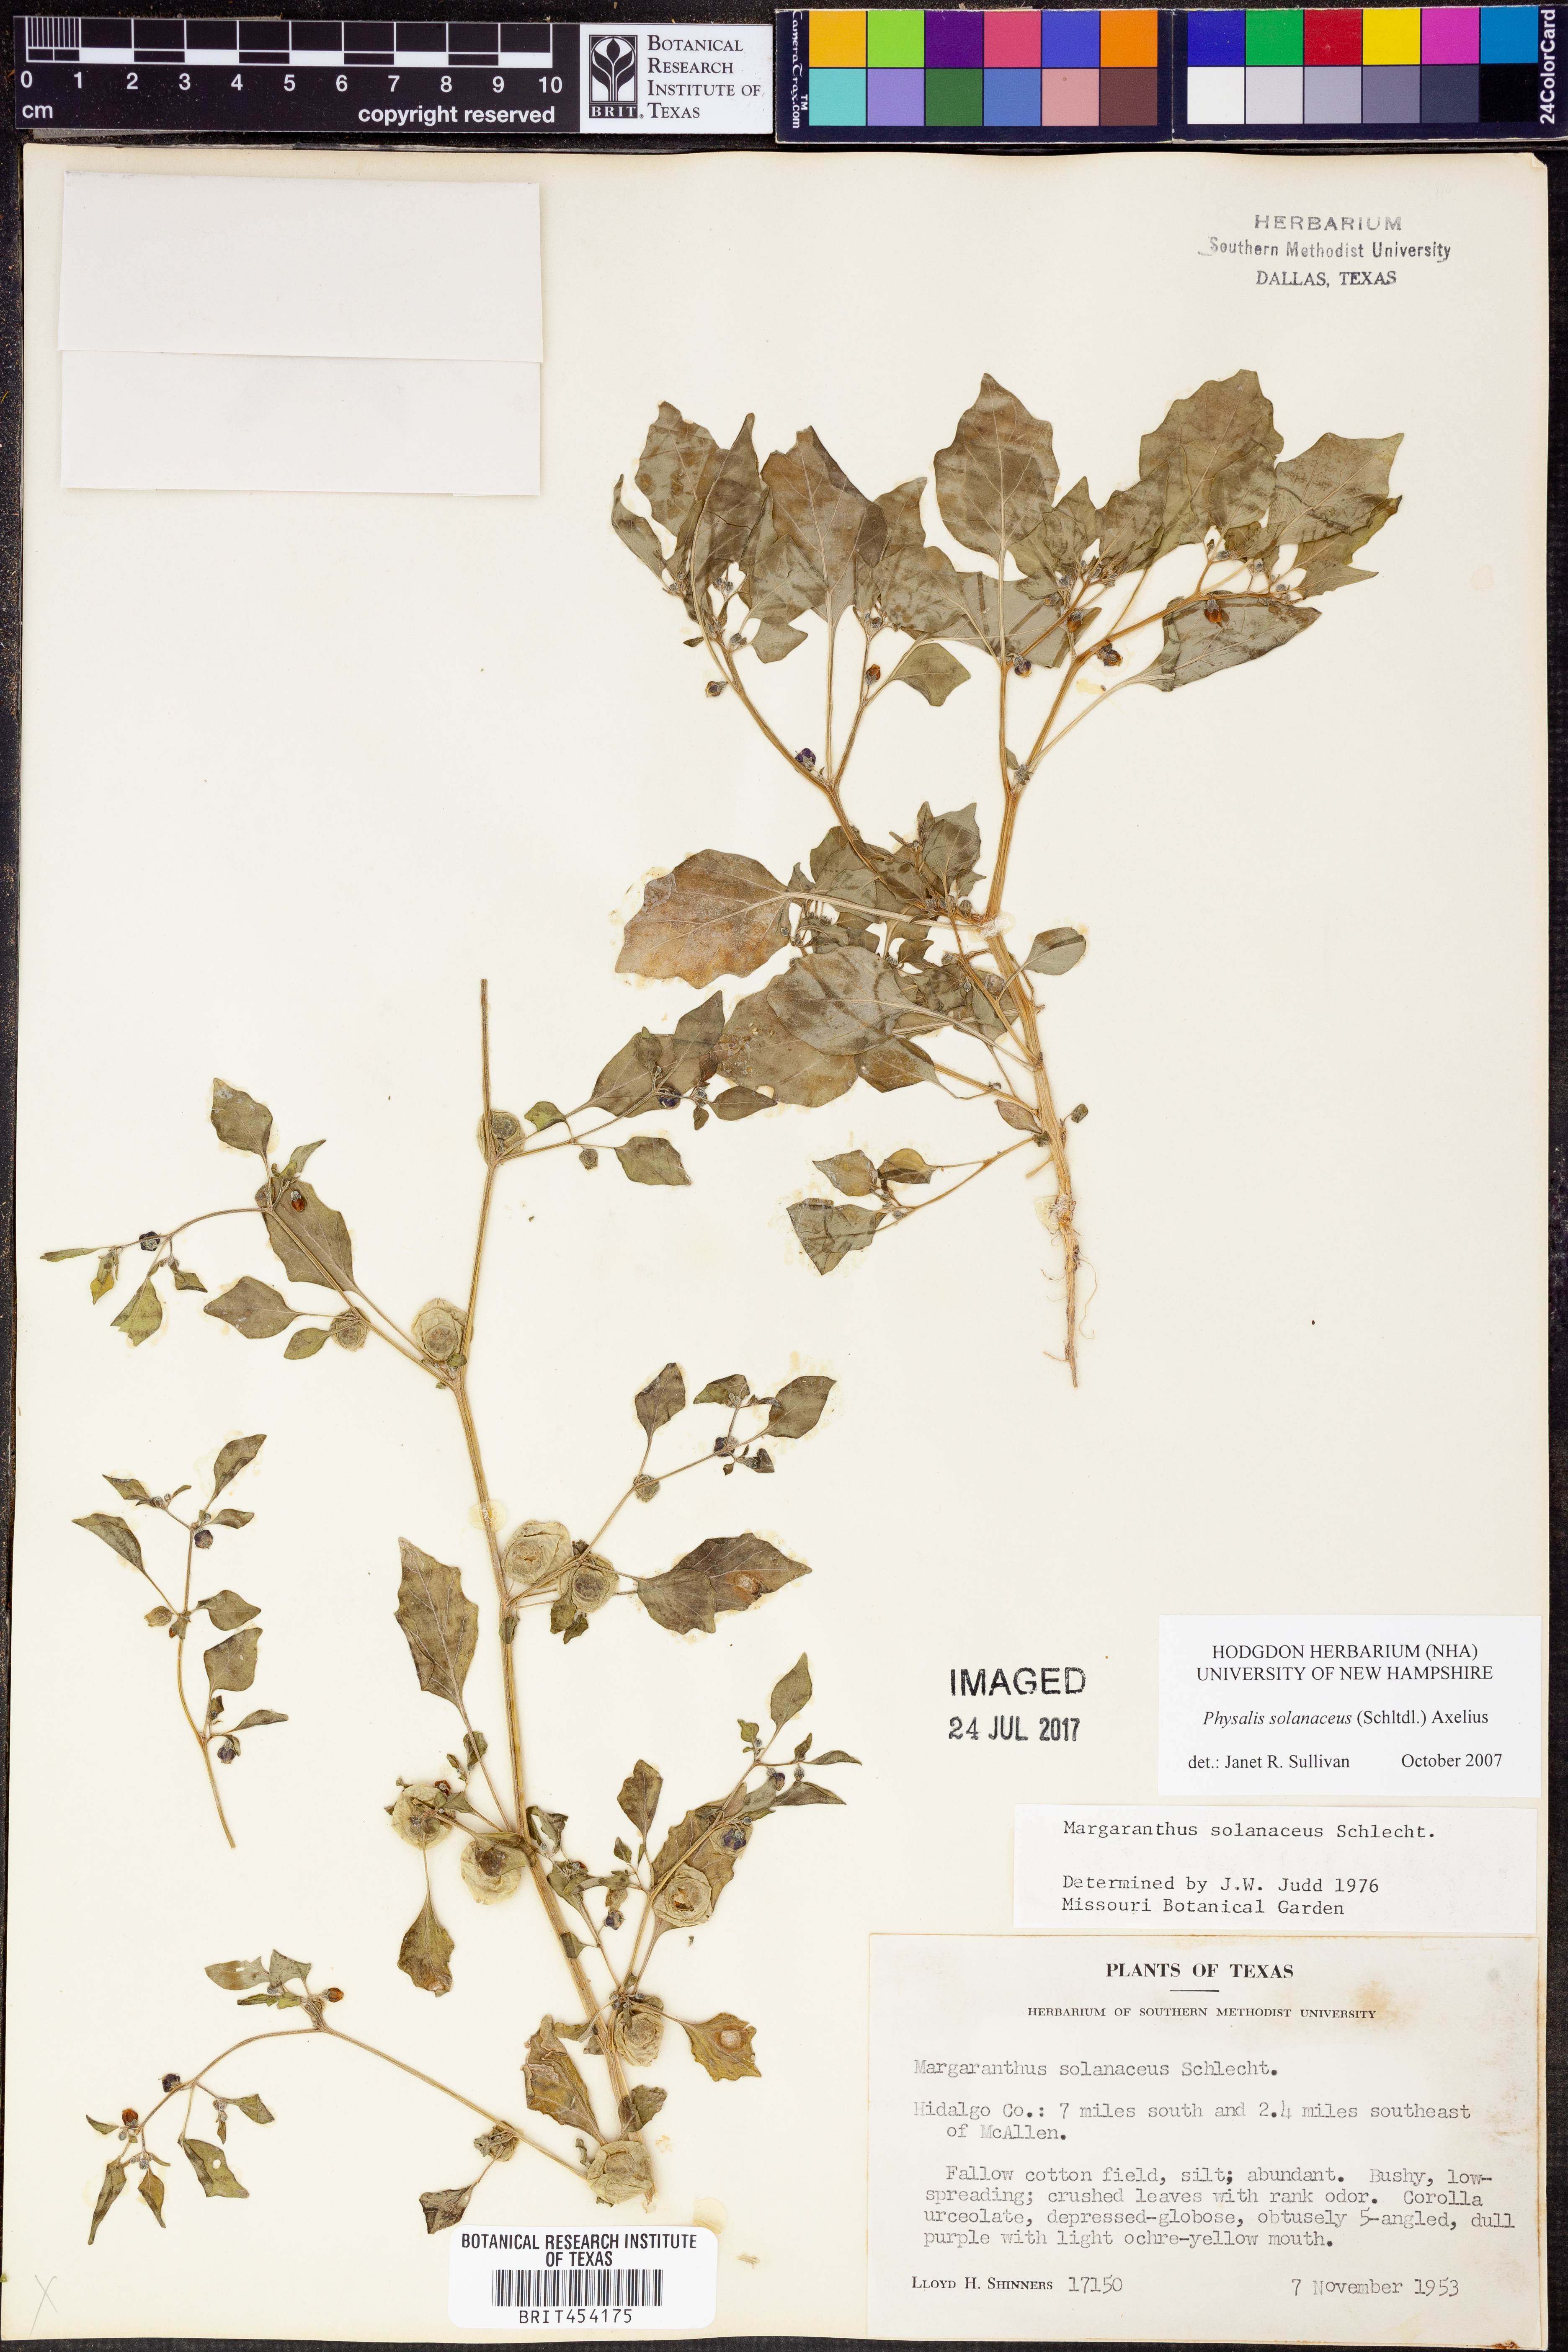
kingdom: Plantae
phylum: Tracheophyta
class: Magnoliopsida
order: Solanales
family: Solanaceae
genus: Physalis
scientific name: Physalis solanacea
